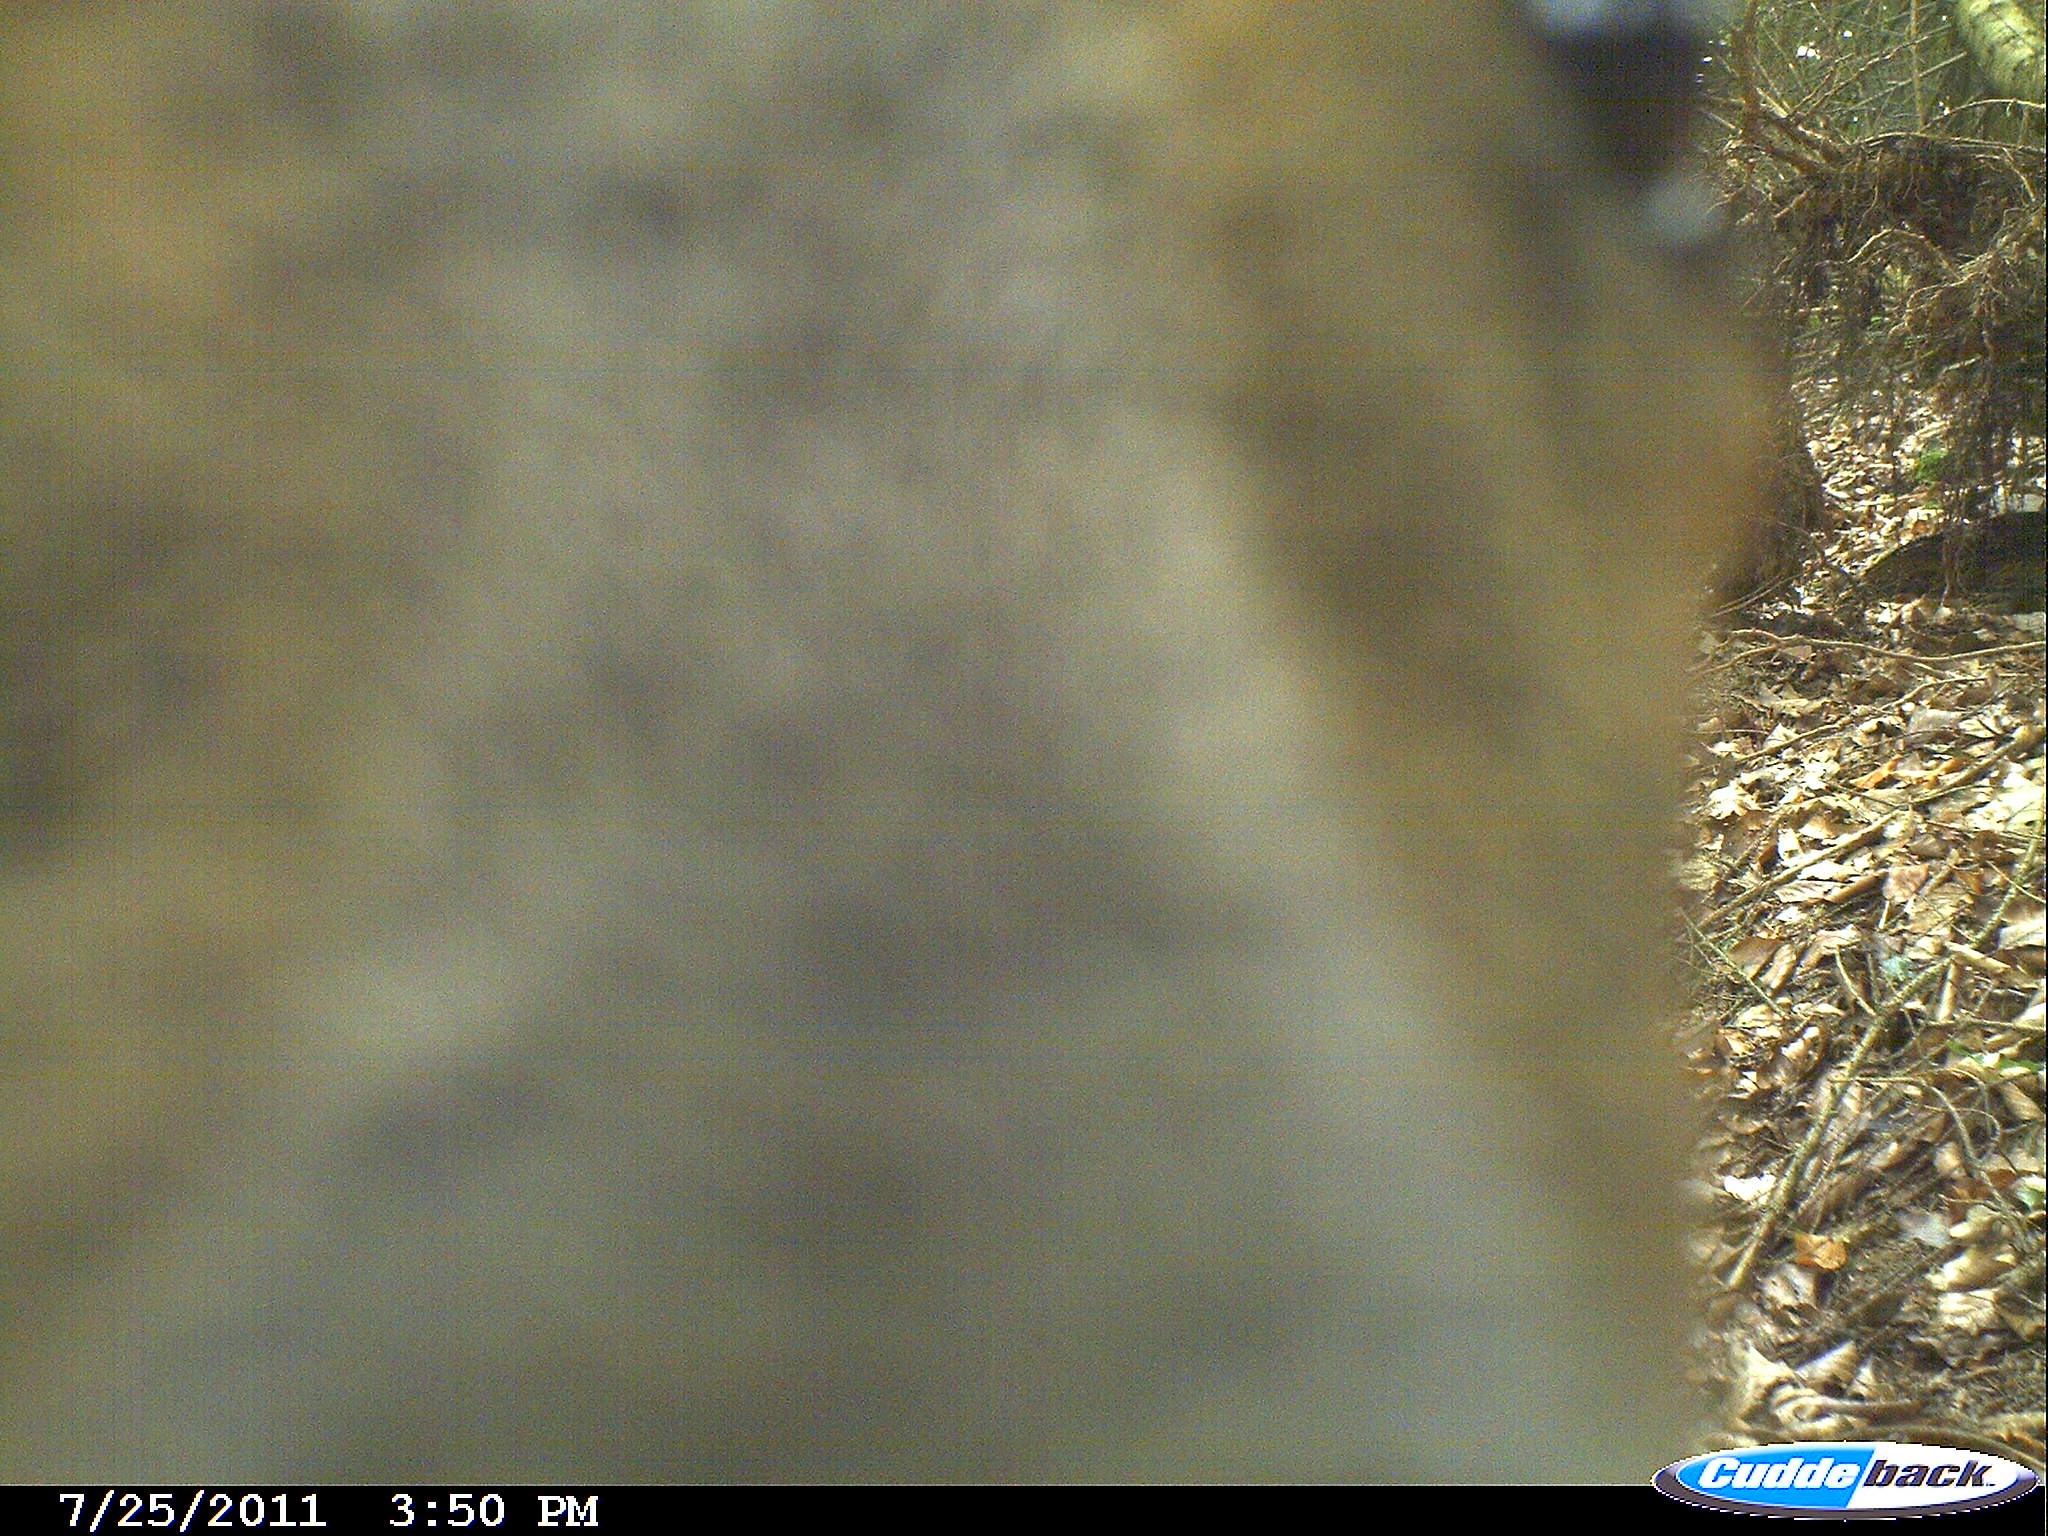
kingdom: Animalia
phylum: Chordata
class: Mammalia
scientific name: Mammalia
